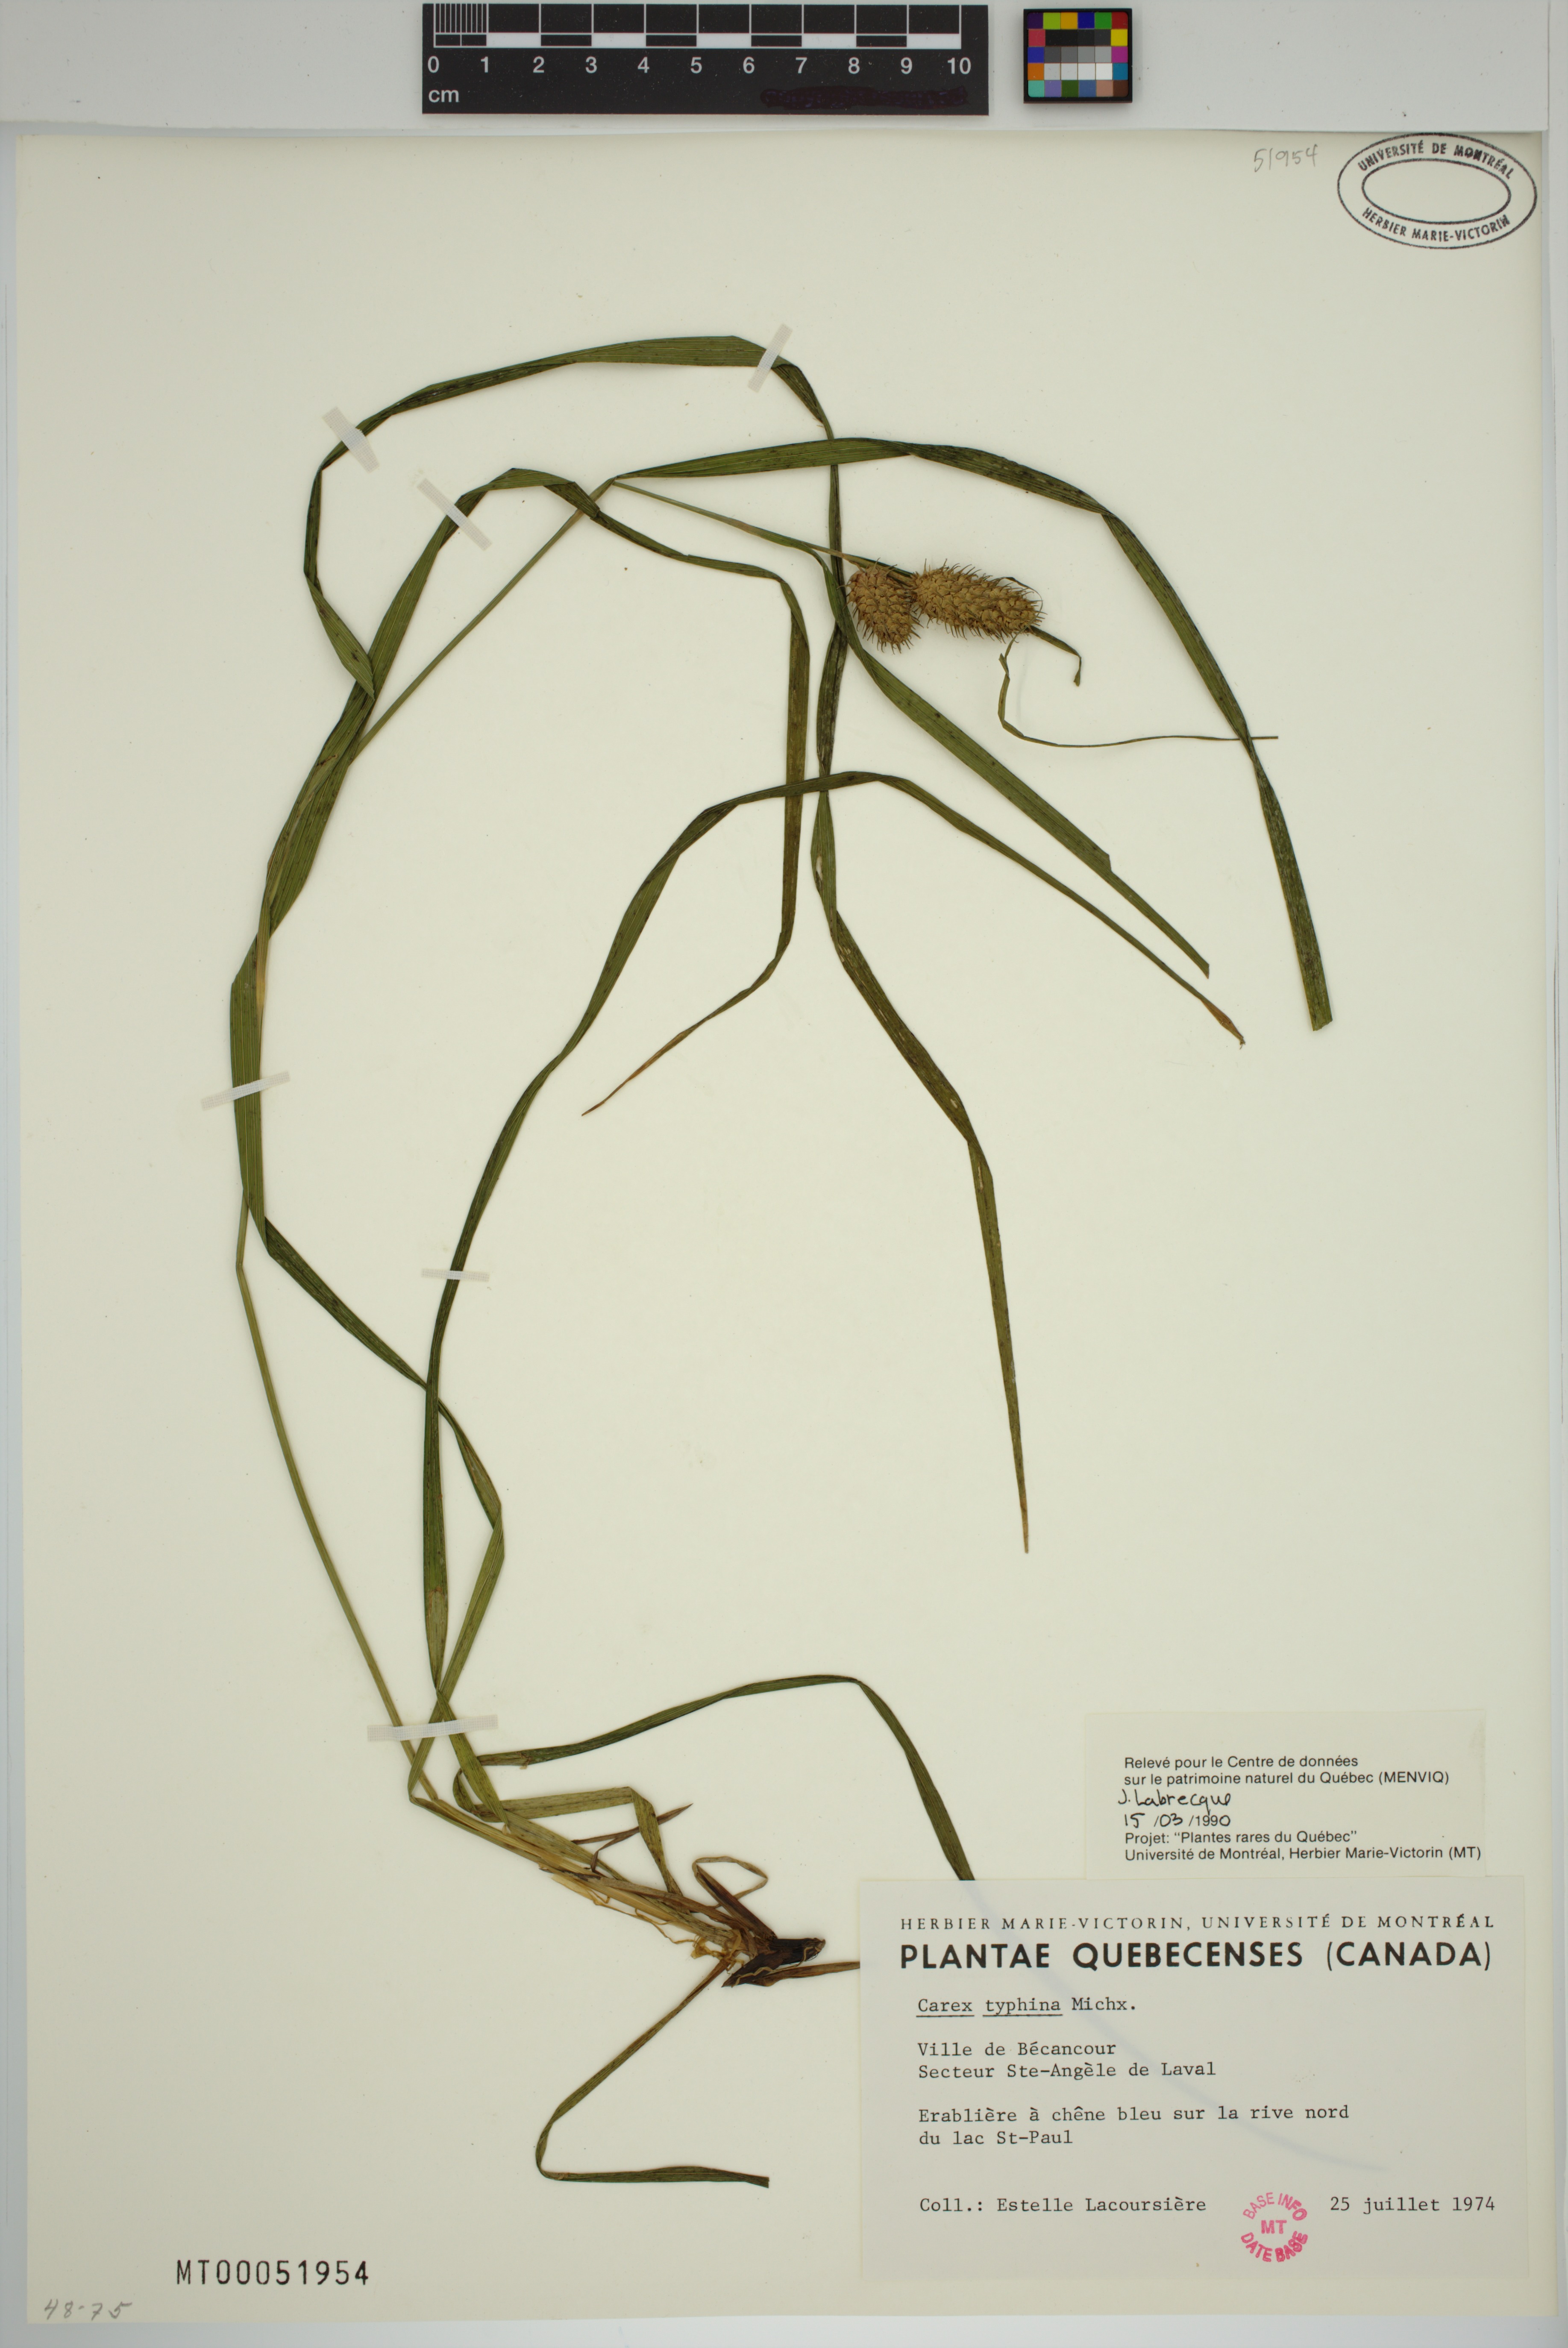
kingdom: Plantae
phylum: Tracheophyta
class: Liliopsida
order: Poales
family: Cyperaceae
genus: Carex
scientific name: Carex typhina
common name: Cattail sedge
